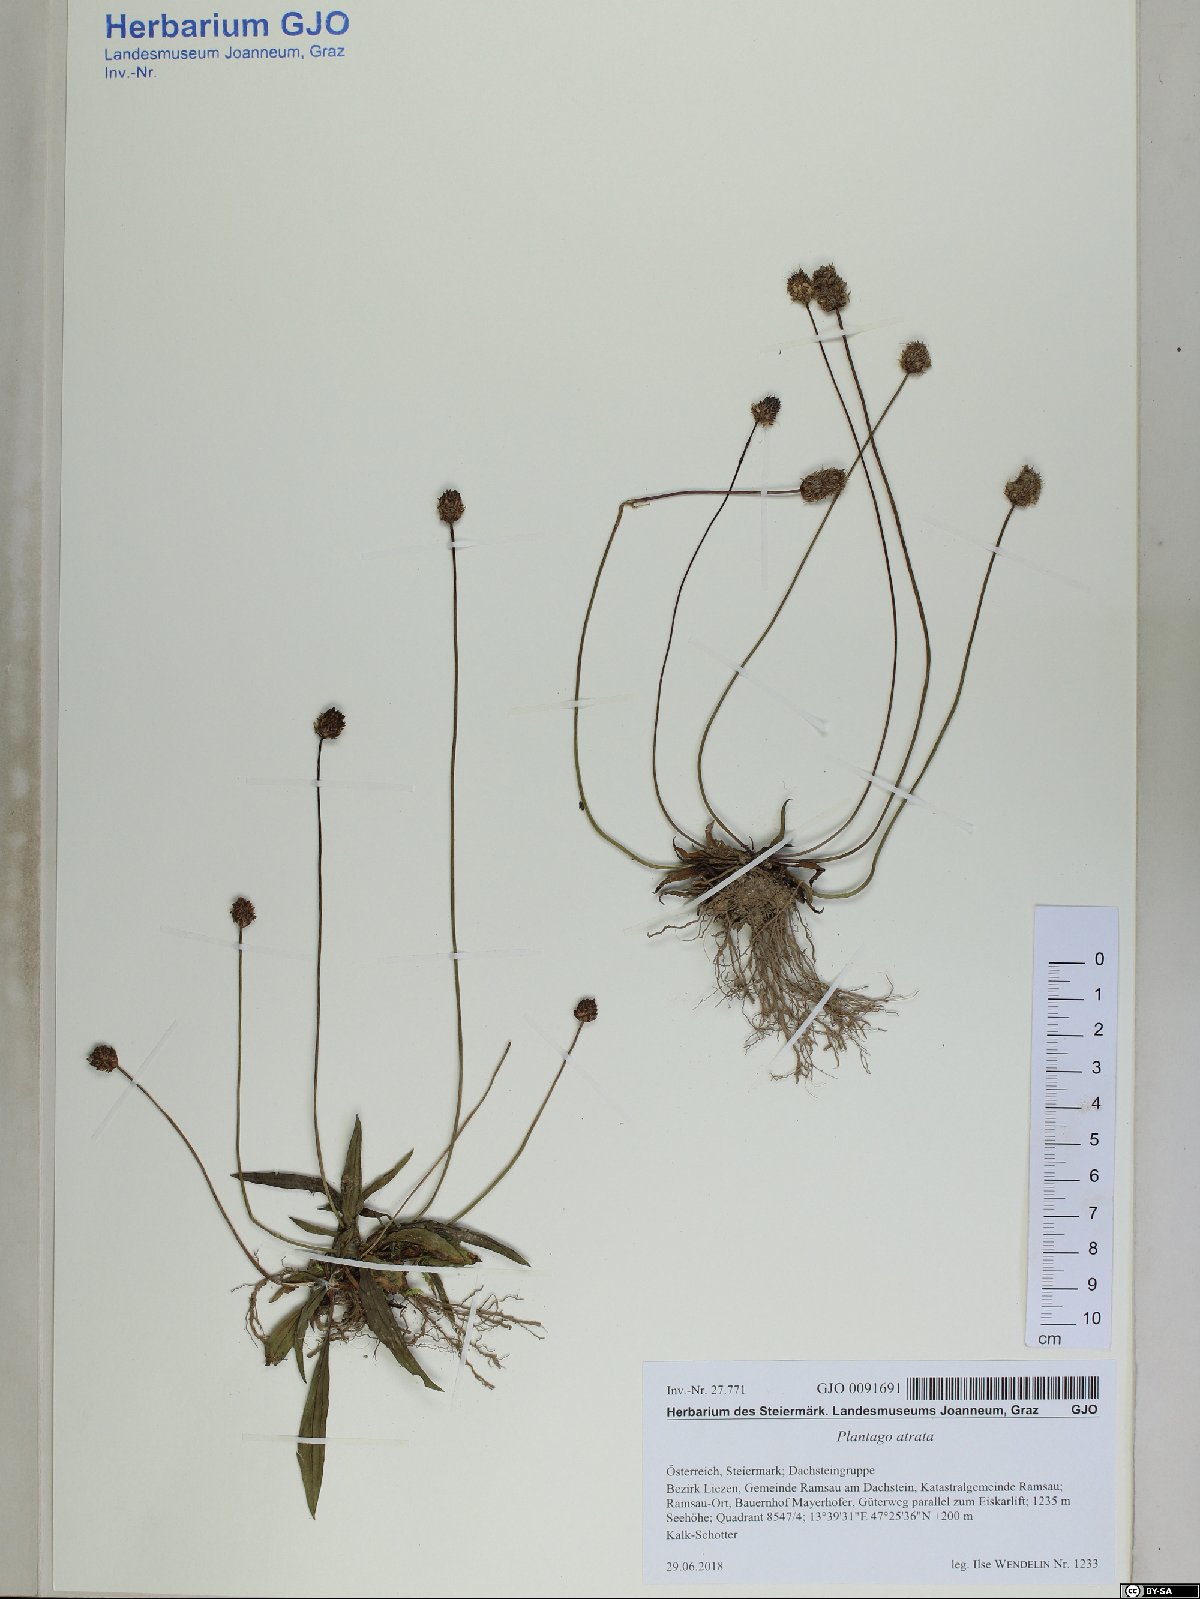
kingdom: Plantae
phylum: Tracheophyta
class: Magnoliopsida
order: Lamiales
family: Plantaginaceae
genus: Plantago
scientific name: Plantago atrata
